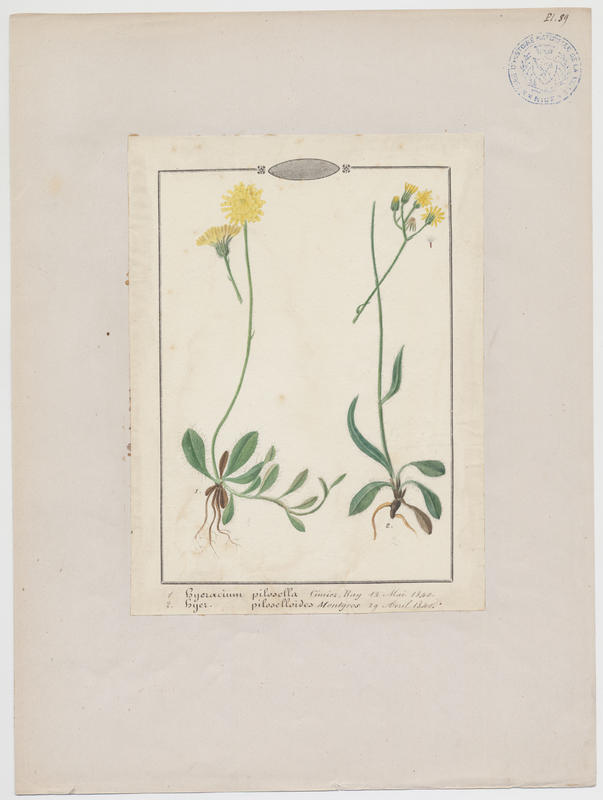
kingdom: Plantae
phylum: Tracheophyta
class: Magnoliopsida
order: Asterales
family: Asteraceae
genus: Pilosella
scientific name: Pilosella piloselloides
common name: Glaucous king-devil
